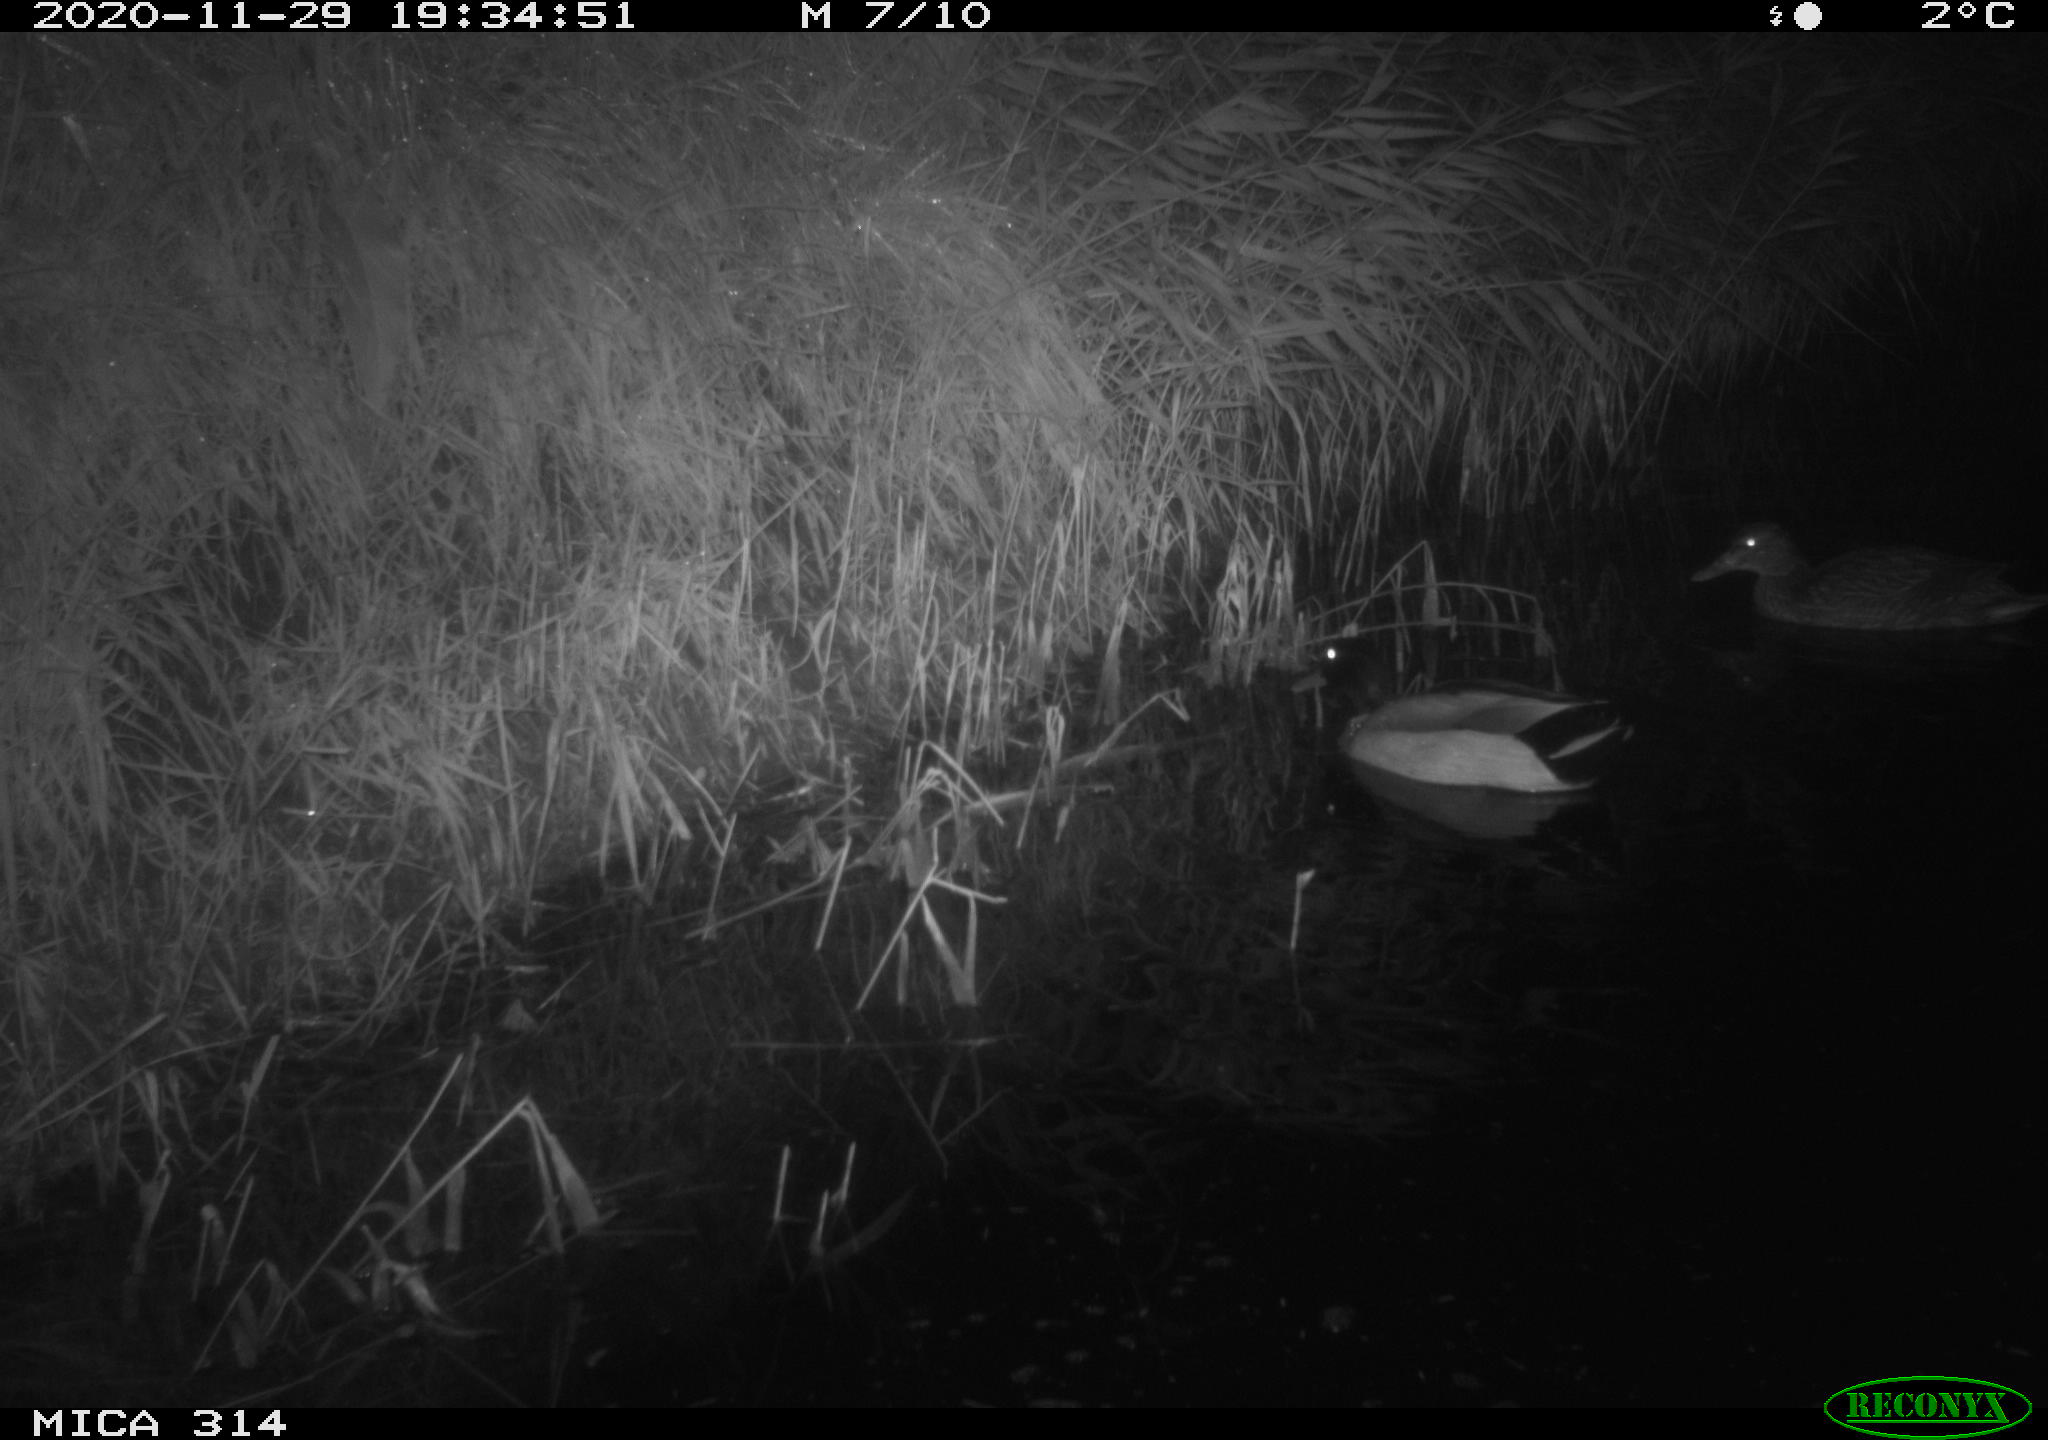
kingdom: Animalia
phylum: Chordata
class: Aves
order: Anseriformes
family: Anatidae
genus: Anas
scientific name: Anas platyrhynchos
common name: Mallard
